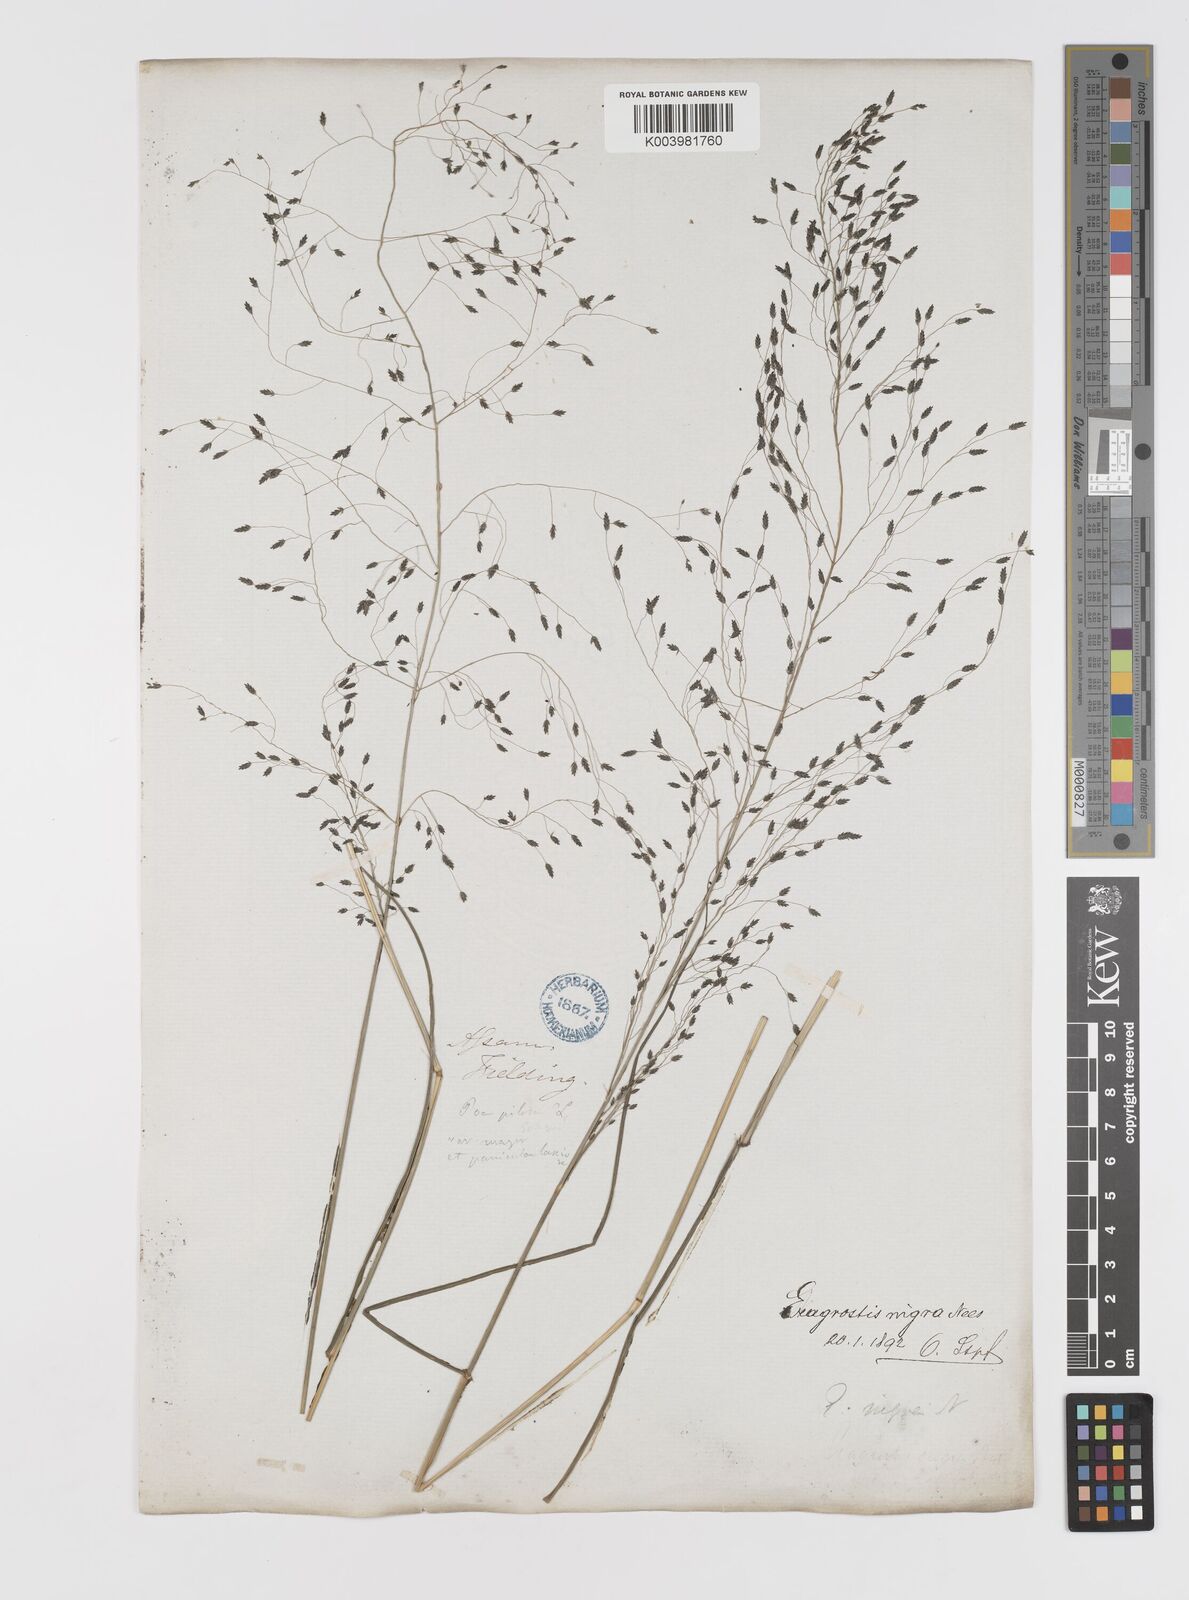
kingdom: Plantae
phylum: Tracheophyta
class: Liliopsida
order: Poales
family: Poaceae
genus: Eragrostis
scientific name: Eragrostis nigra
